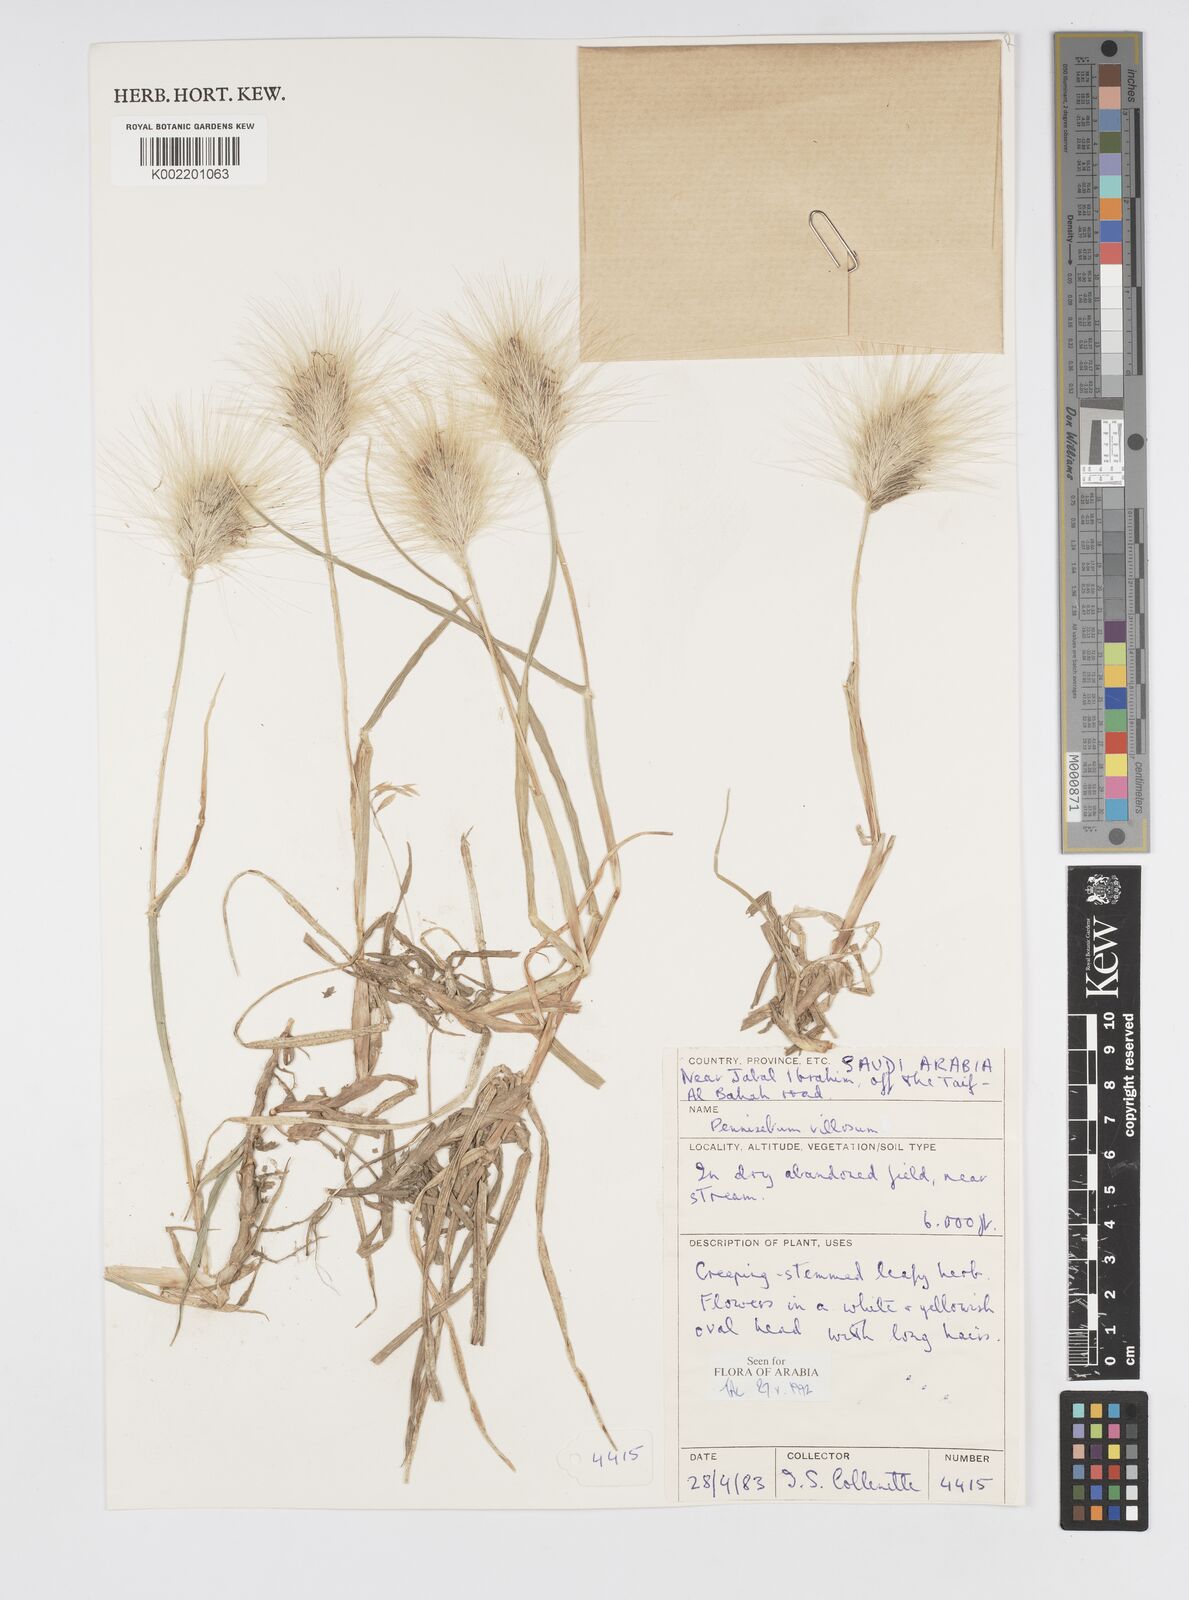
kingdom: Plantae
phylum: Tracheophyta
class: Liliopsida
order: Poales
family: Poaceae
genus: Cenchrus
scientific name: Cenchrus longisetus
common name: Feathertop
